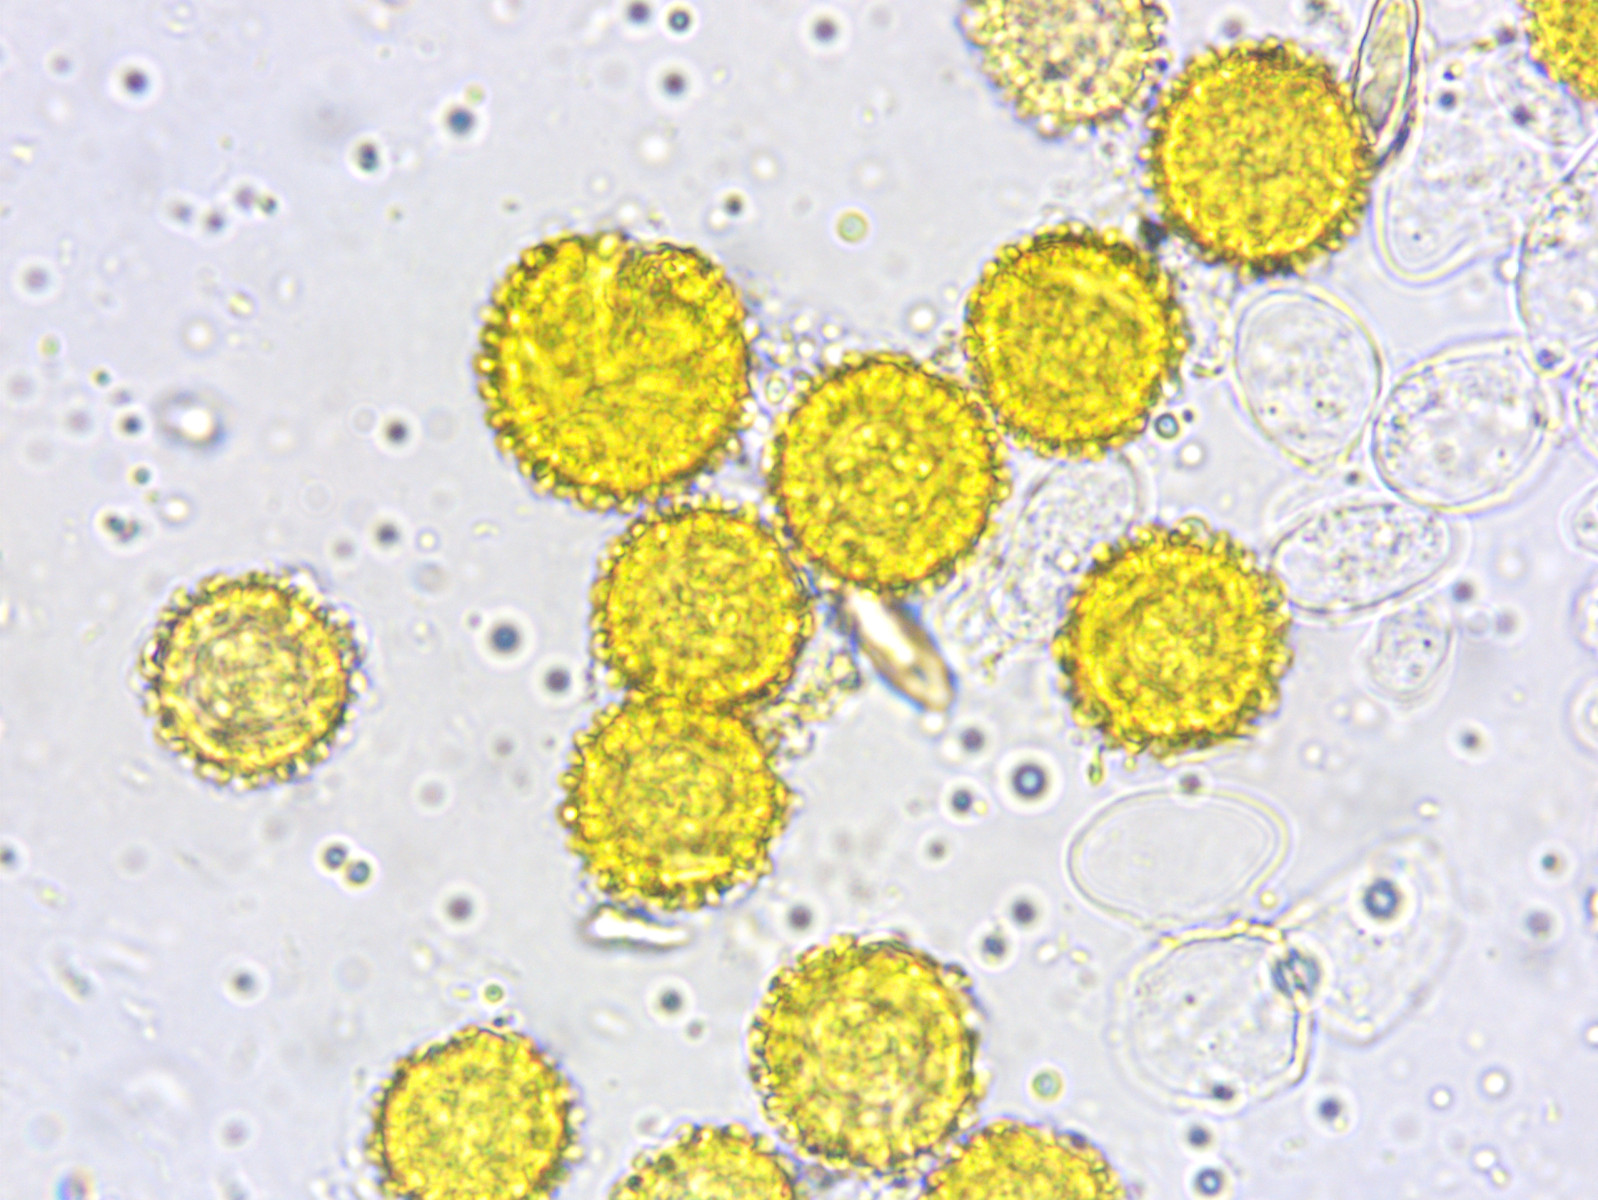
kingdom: Fungi
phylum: Ascomycota
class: Sordariomycetes
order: Hypocreales
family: Hypocreaceae
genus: Hypomyces
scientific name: Hypomyces chrysospermus
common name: gulskimmel-snylteskorpe
